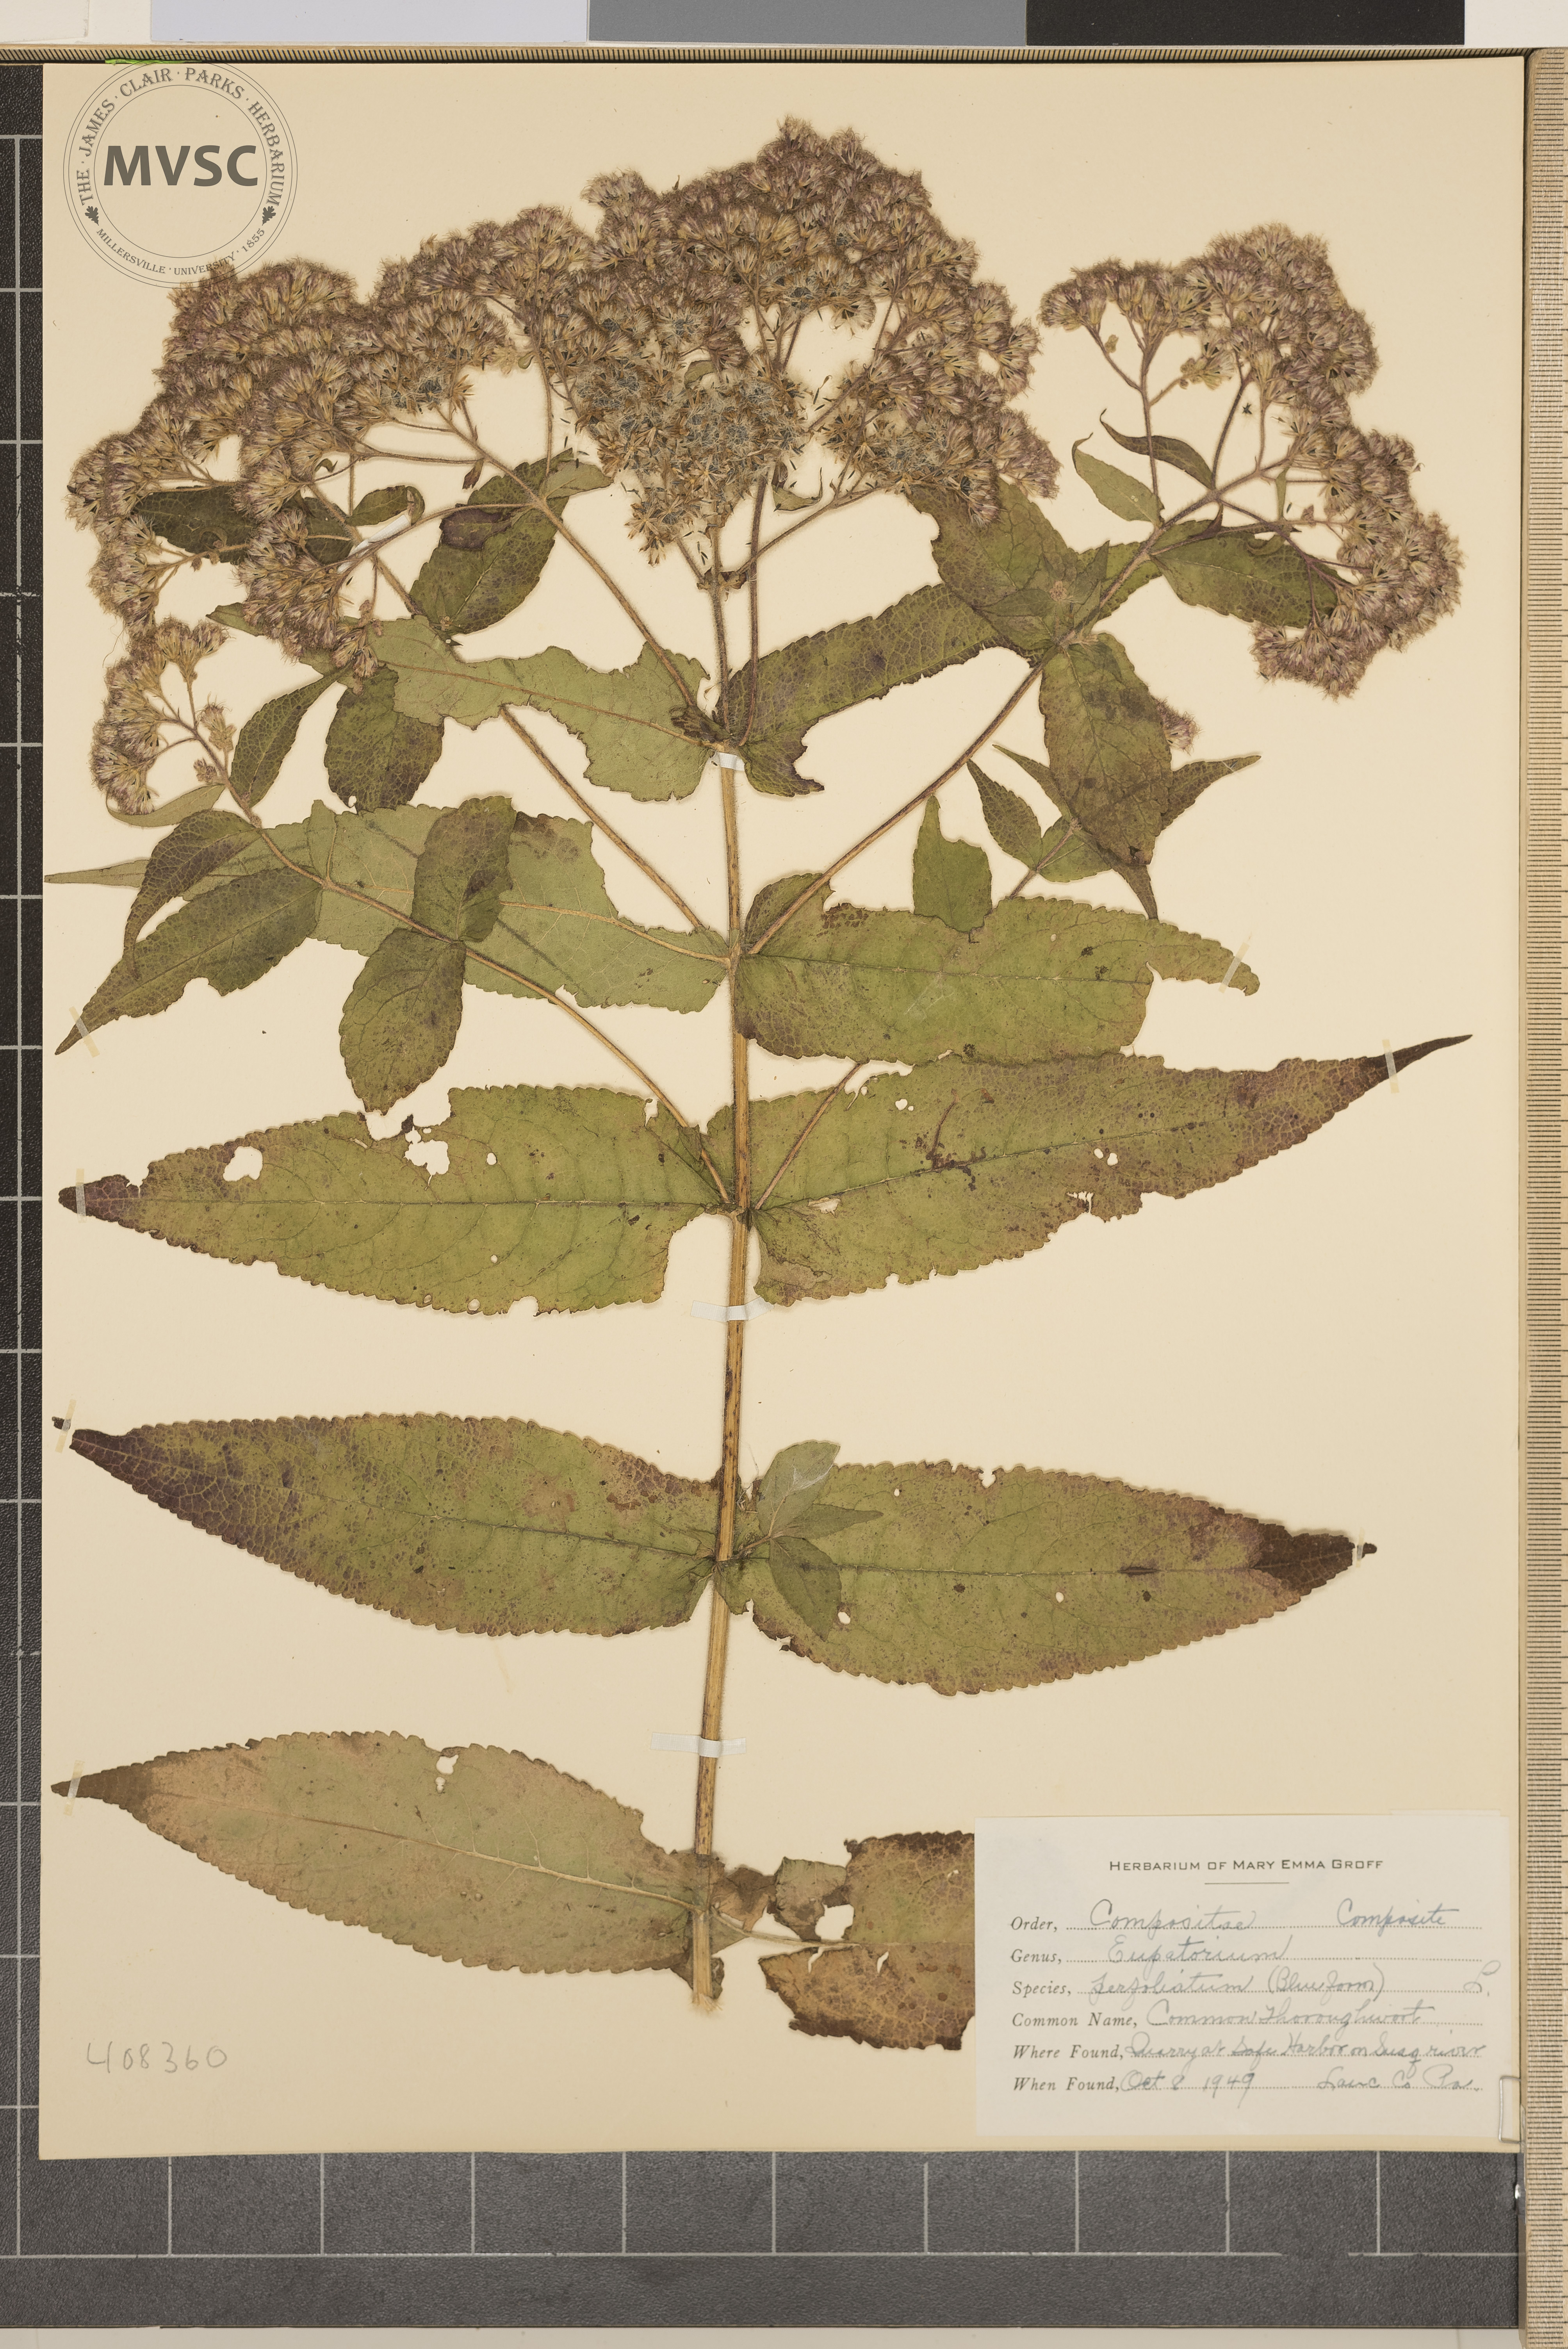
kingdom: Plantae
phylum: Tracheophyta
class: Magnoliopsida
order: Asterales
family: Asteraceae
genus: Eupatorium
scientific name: Eupatorium perfoliatum
